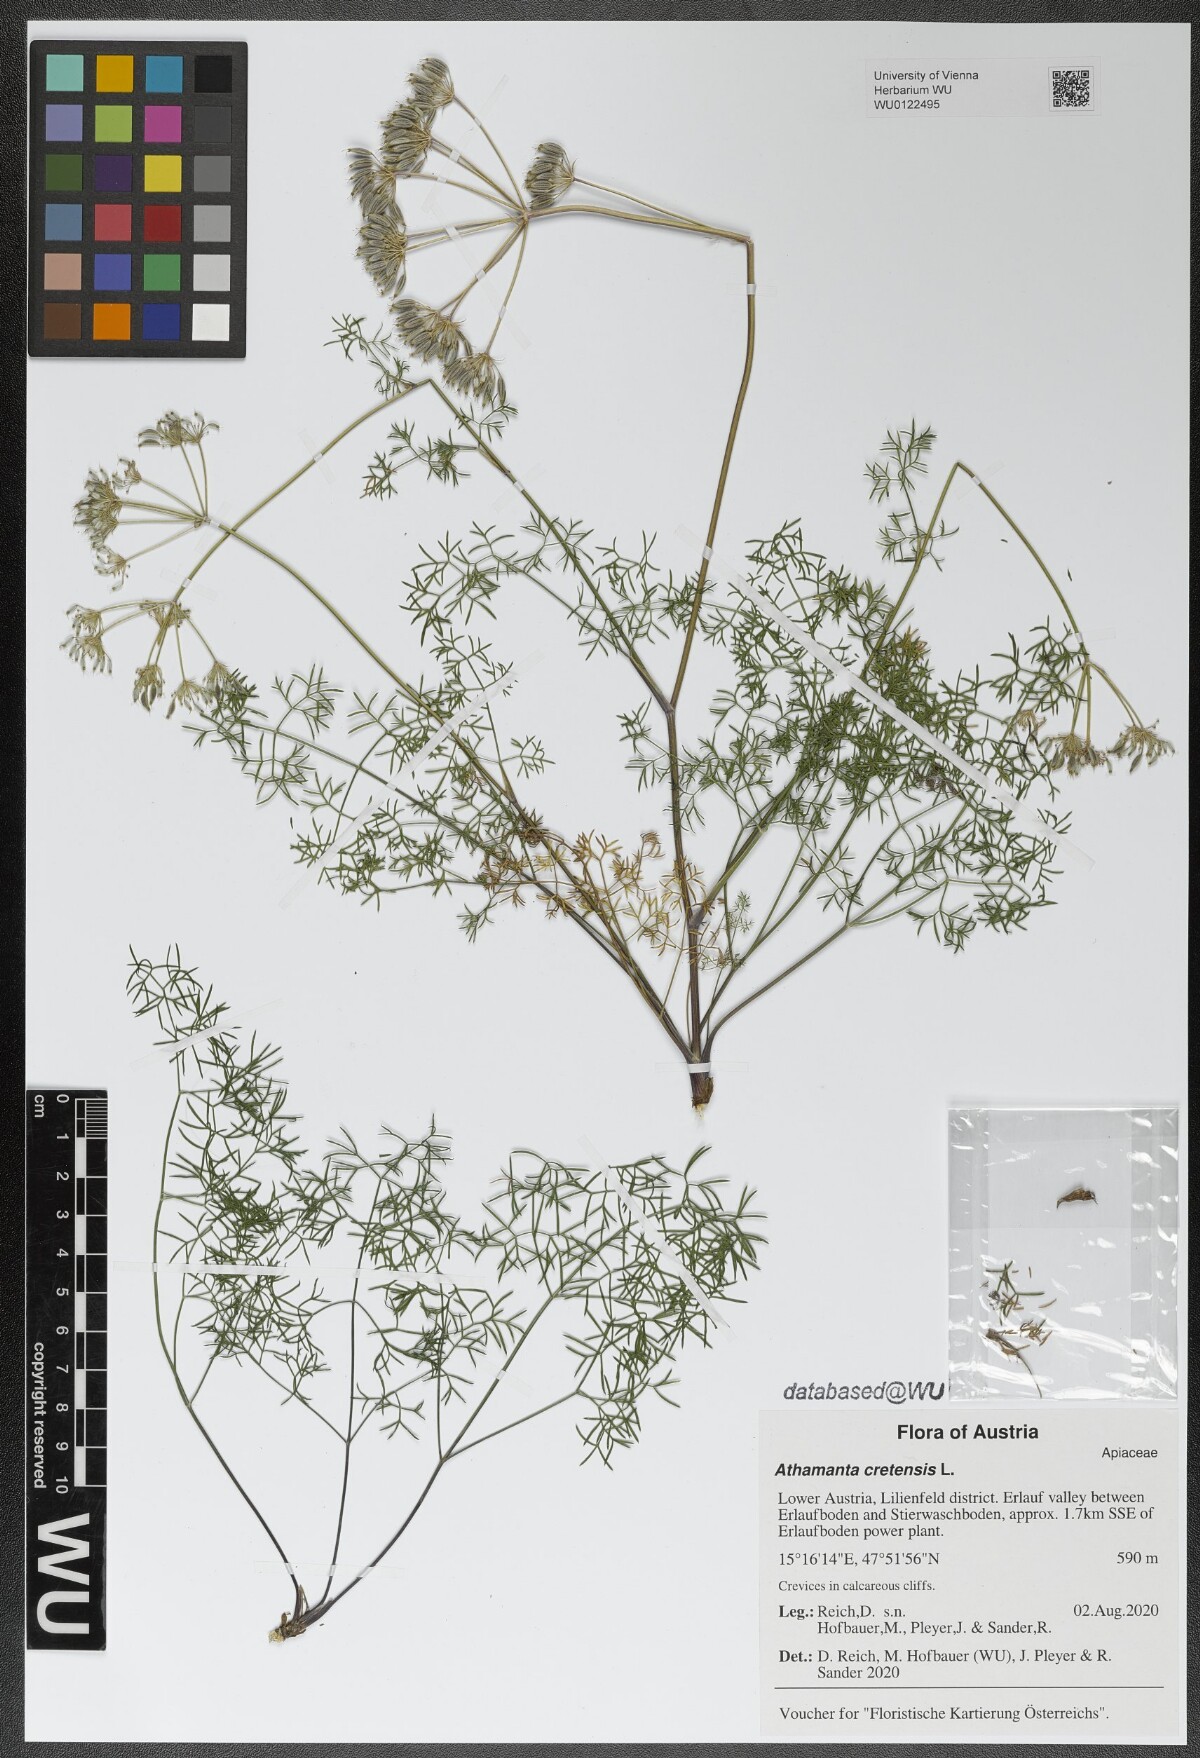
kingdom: Plantae
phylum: Tracheophyta
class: Magnoliopsida
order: Apiales
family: Apiaceae
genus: Athamanta
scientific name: Athamanta cretensis
